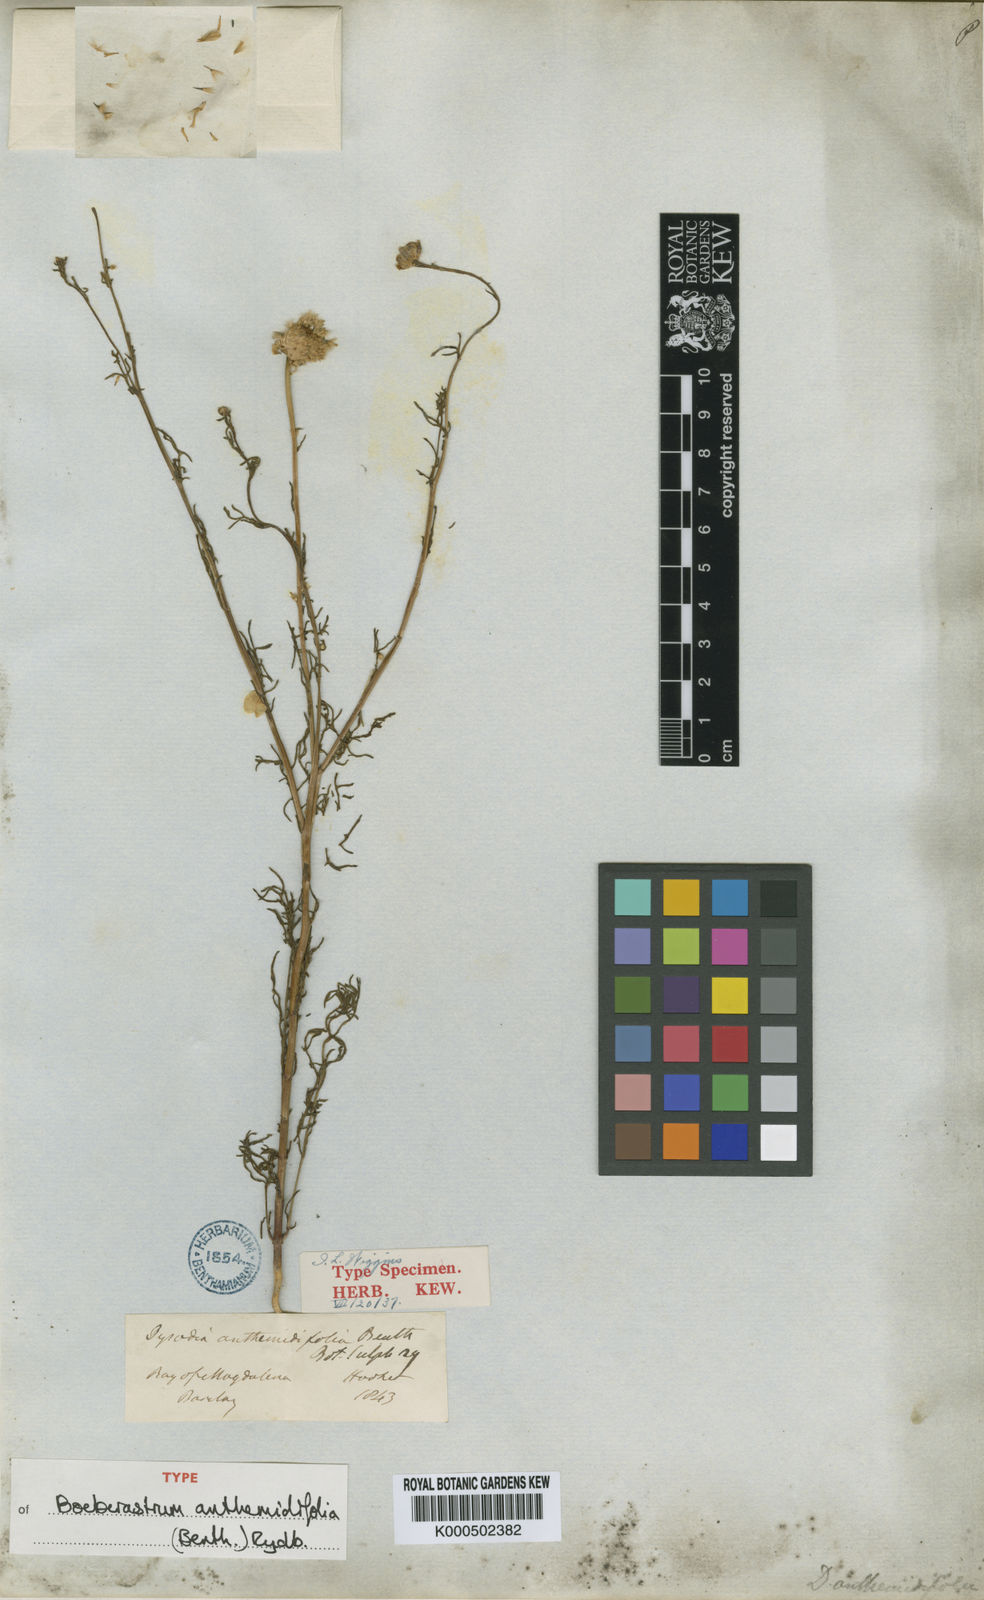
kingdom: Plantae
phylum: Tracheophyta
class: Magnoliopsida
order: Asterales
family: Asteraceae
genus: Boeberastrum
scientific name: Boeberastrum anthemidifolium
